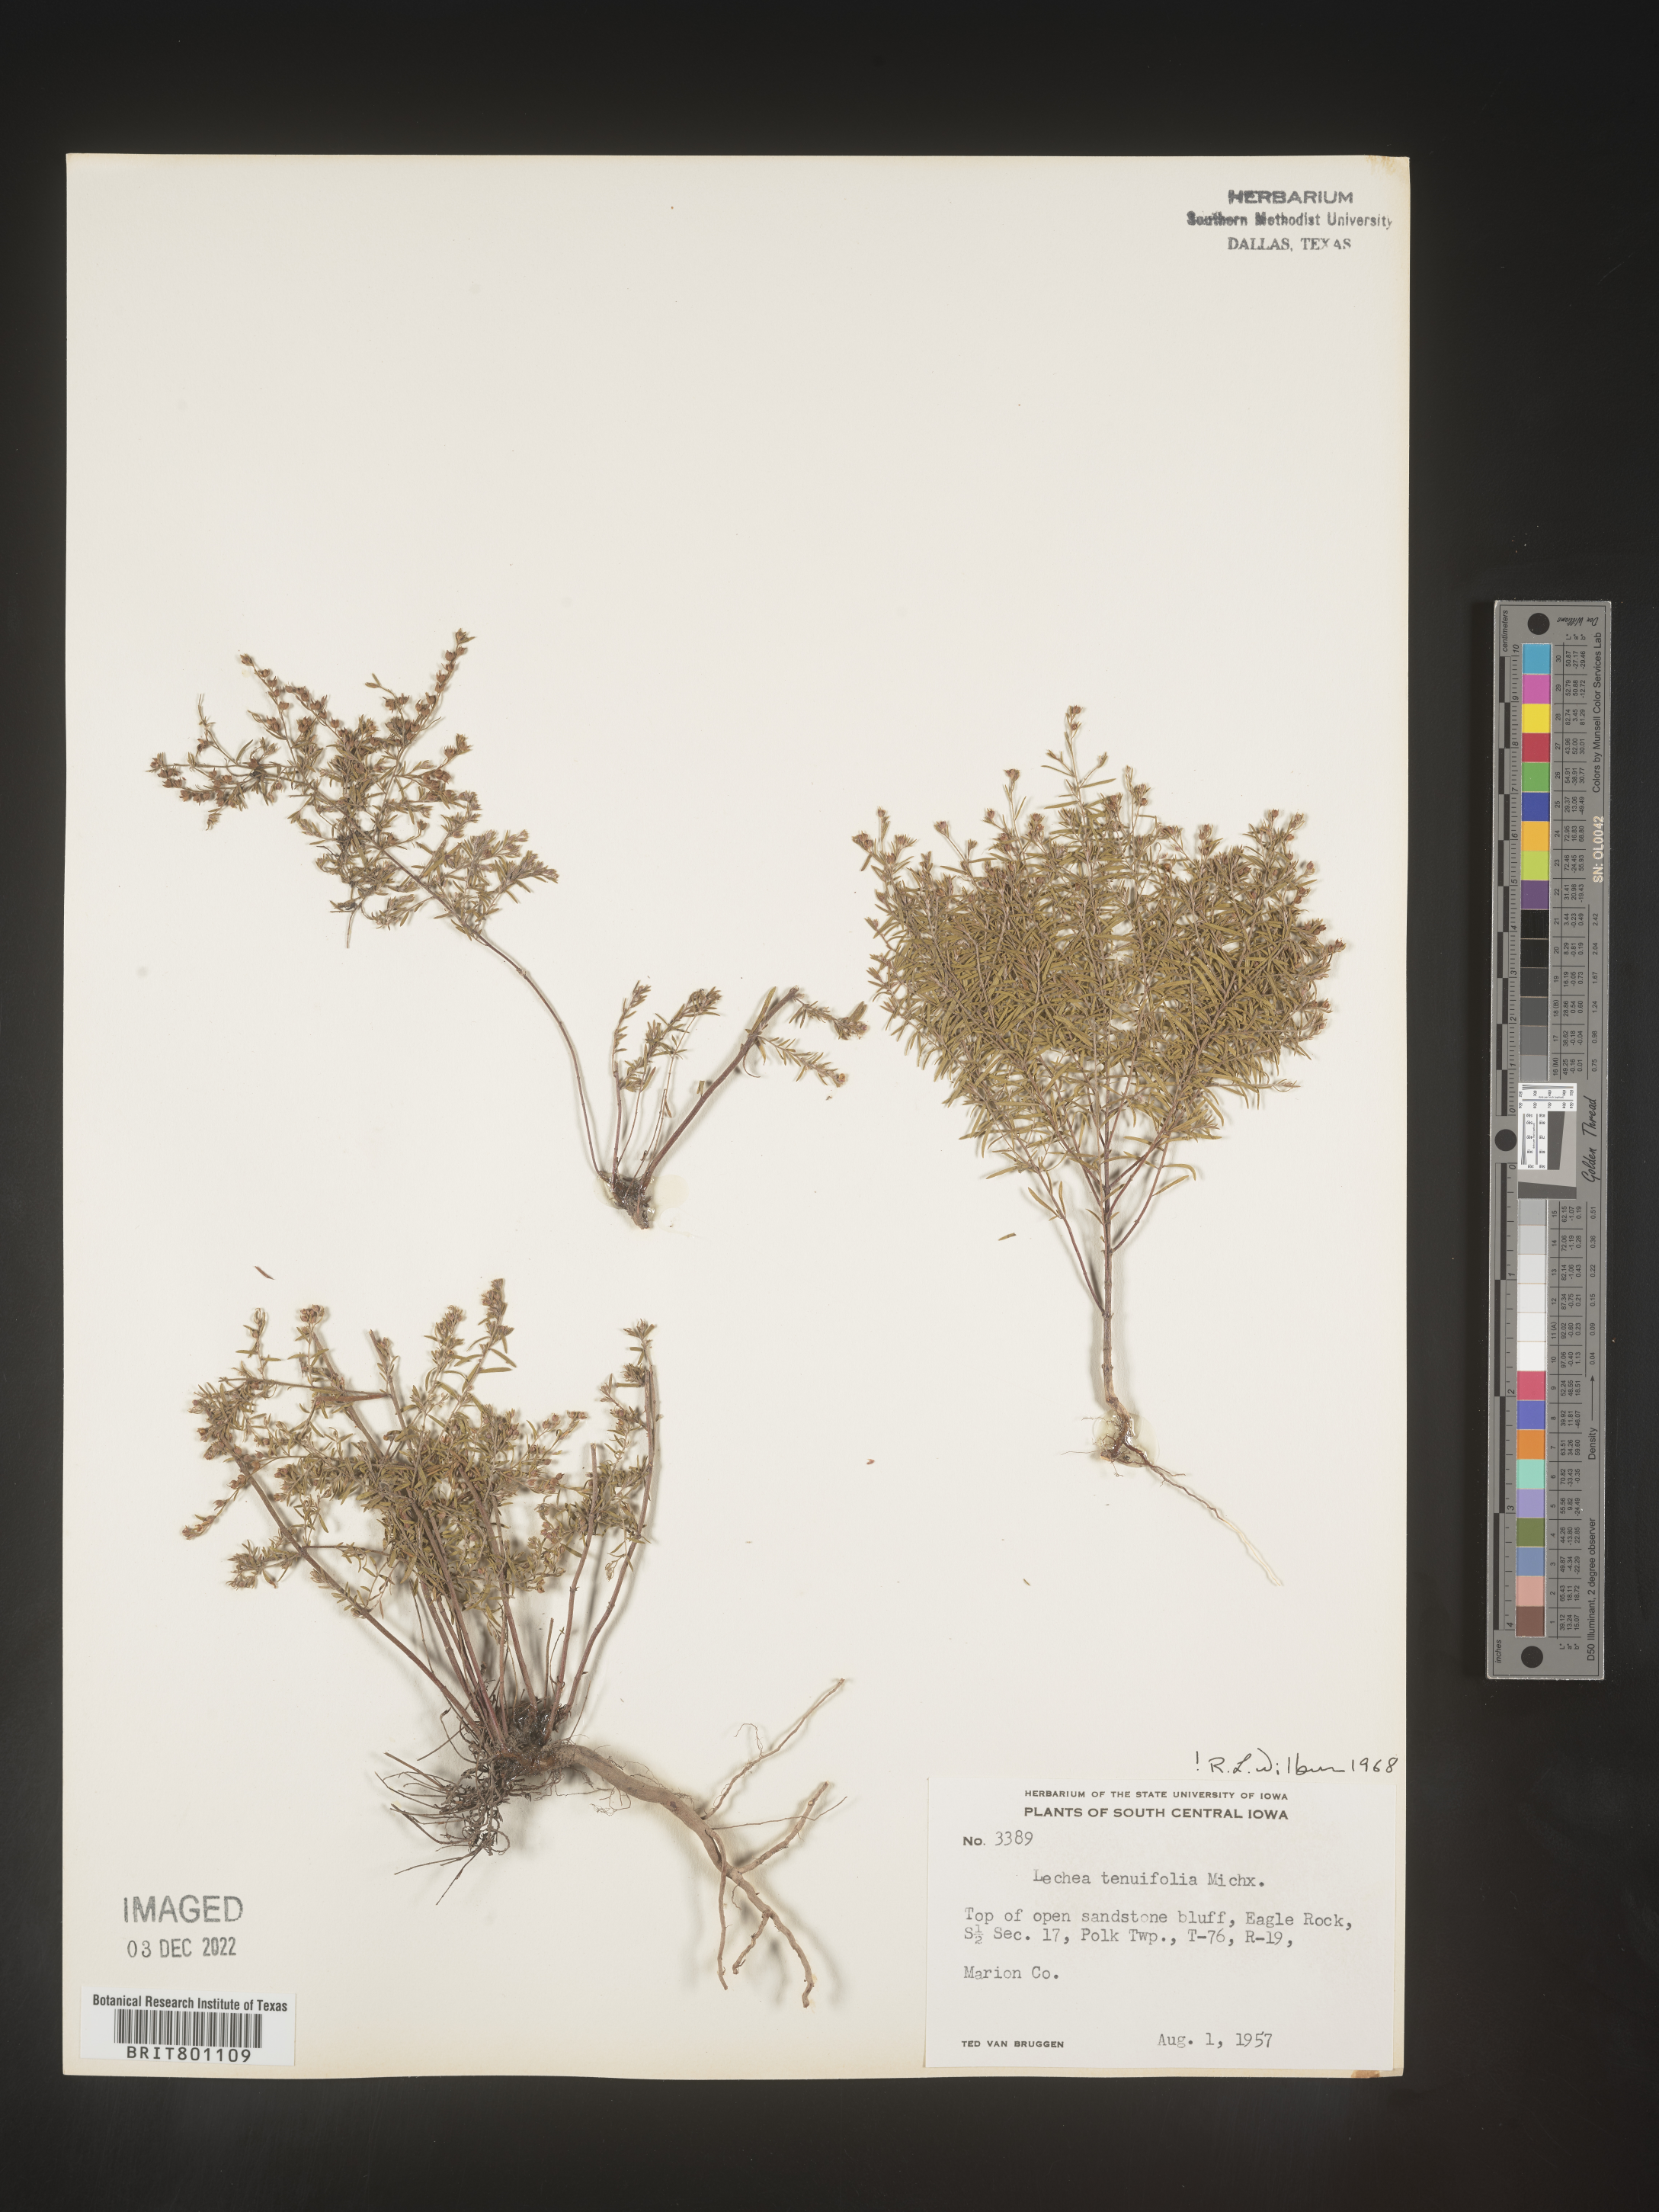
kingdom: Plantae
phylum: Tracheophyta
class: Magnoliopsida
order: Malvales
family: Cistaceae
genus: Lechea
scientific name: Lechea tenuifolia
